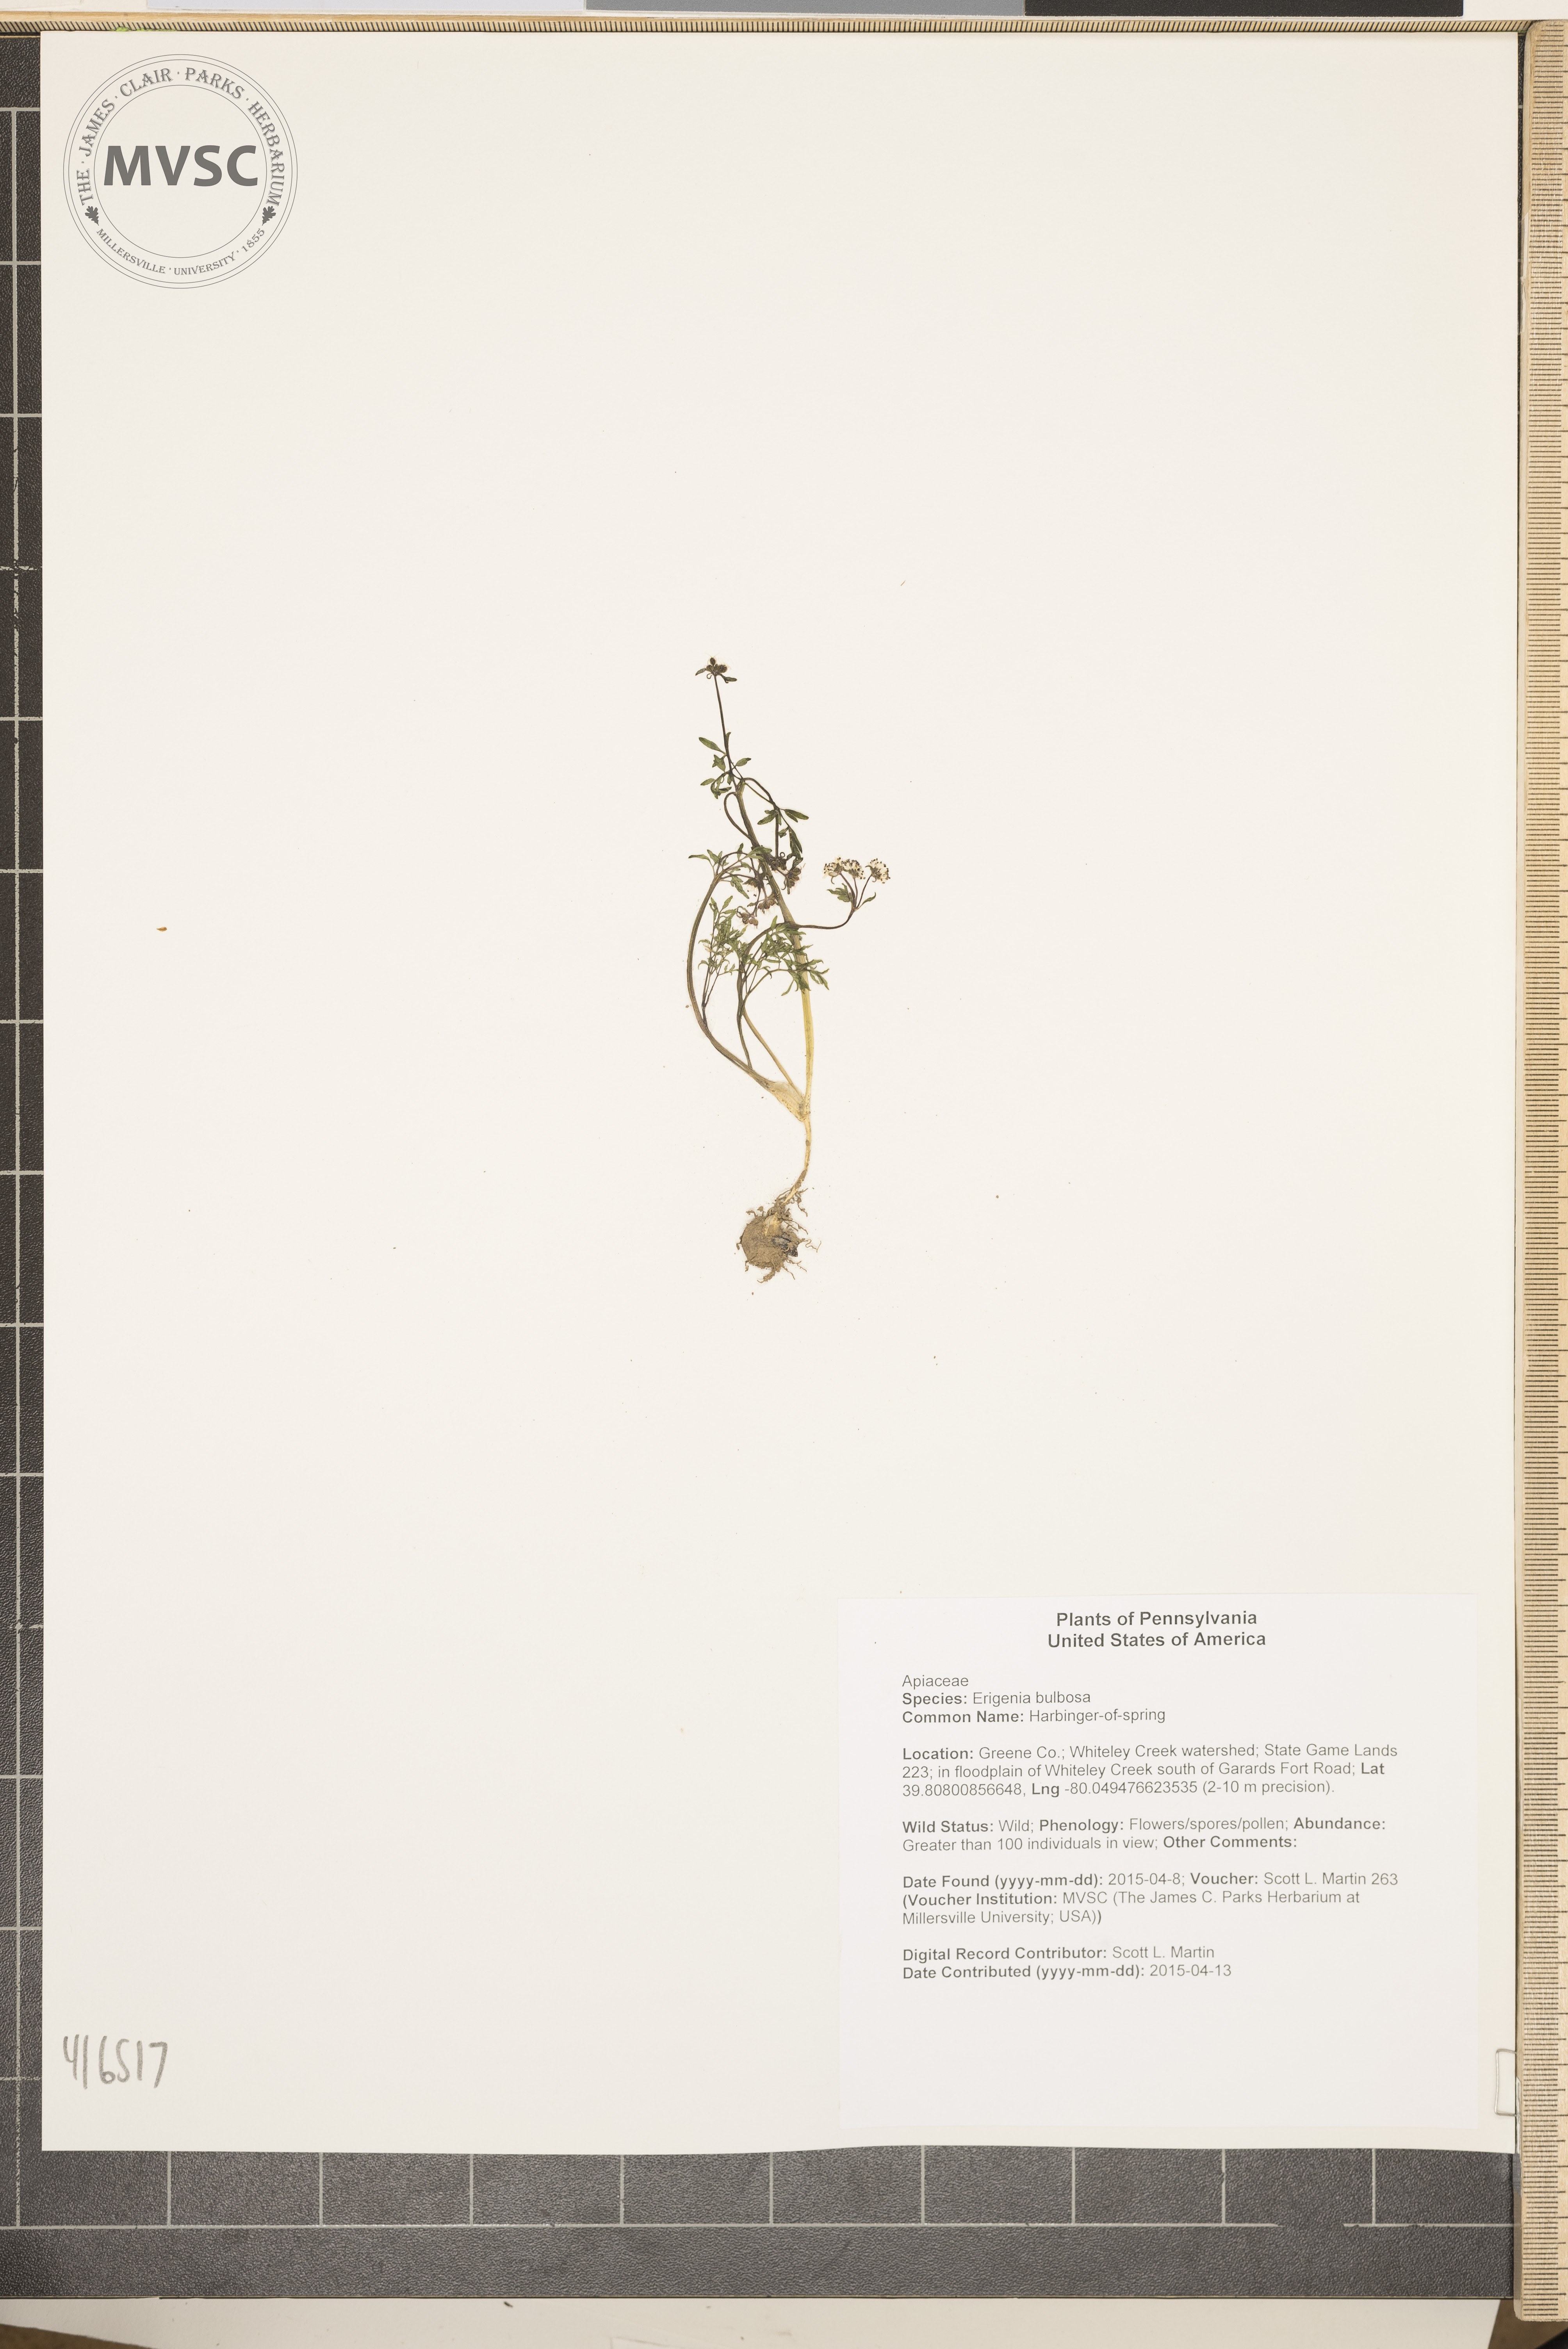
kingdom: Plantae
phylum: Tracheophyta
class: Magnoliopsida
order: Apiales
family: Apiaceae
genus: Erigenia
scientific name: Erigenia bulbosa
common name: Harbinger-of-spring
